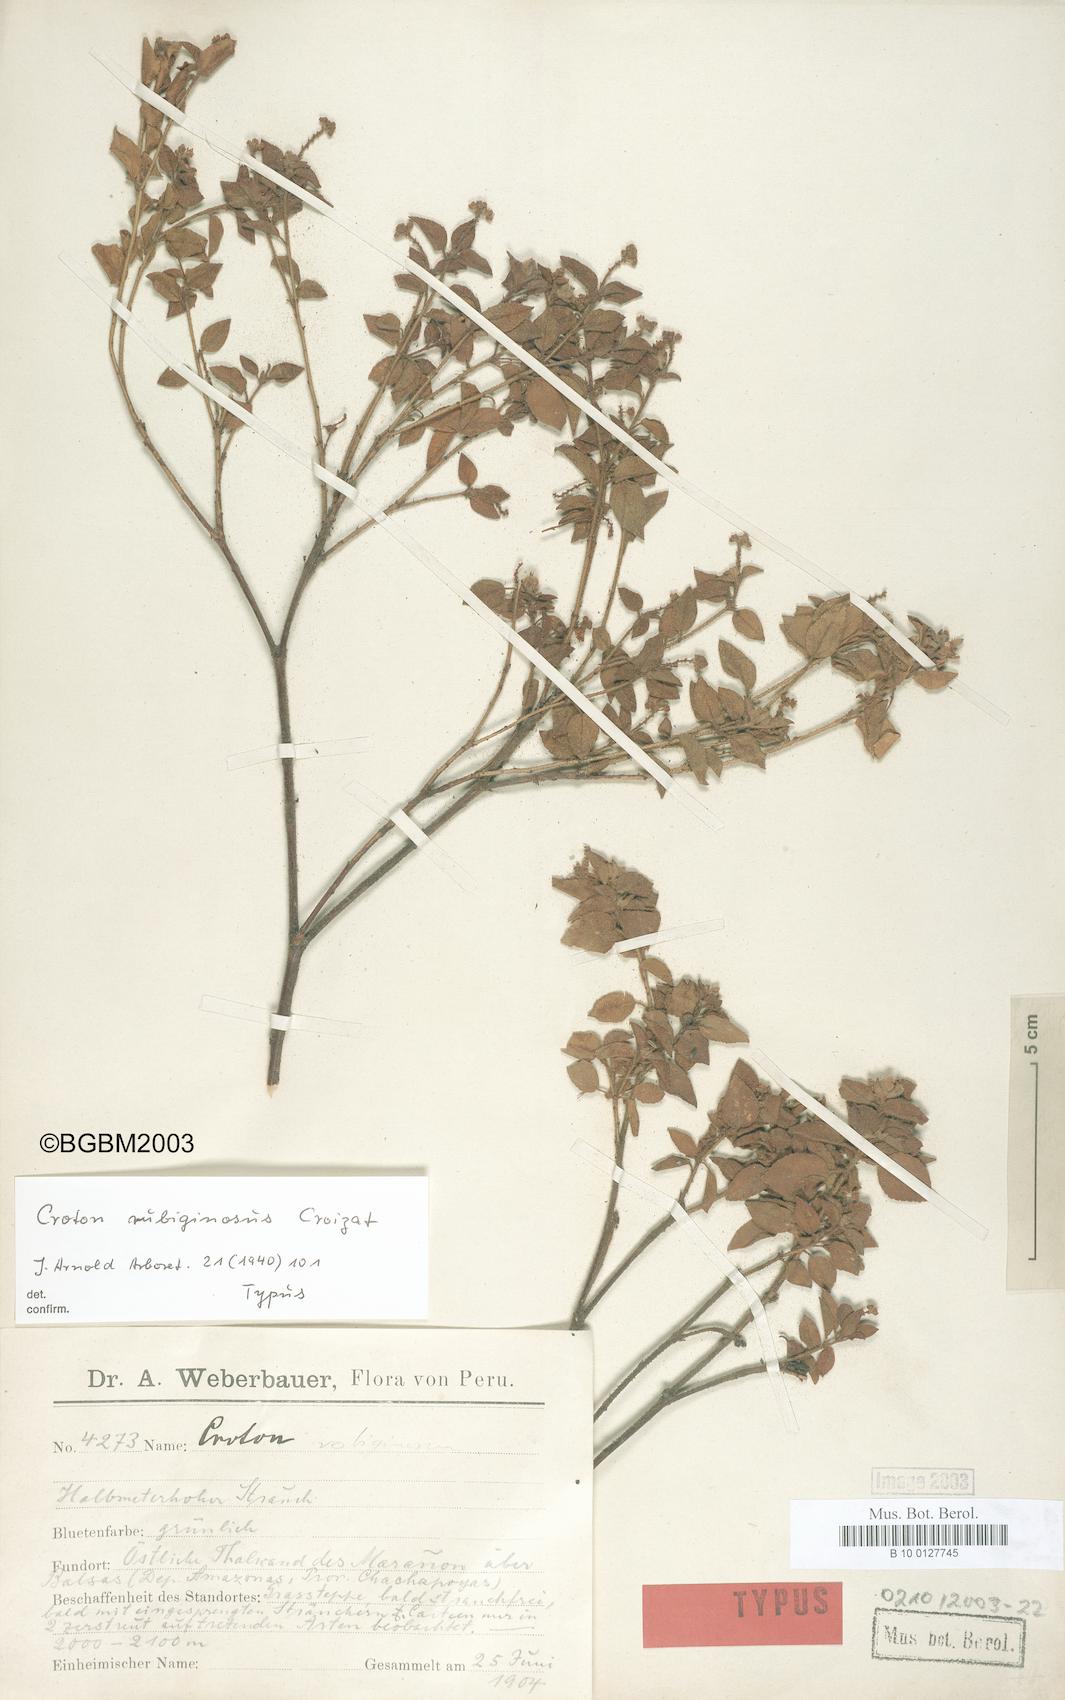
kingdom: Plantae
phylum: Tracheophyta
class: Magnoliopsida
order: Malpighiales
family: Euphorbiaceae
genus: Croton
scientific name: Croton rubiginosus
